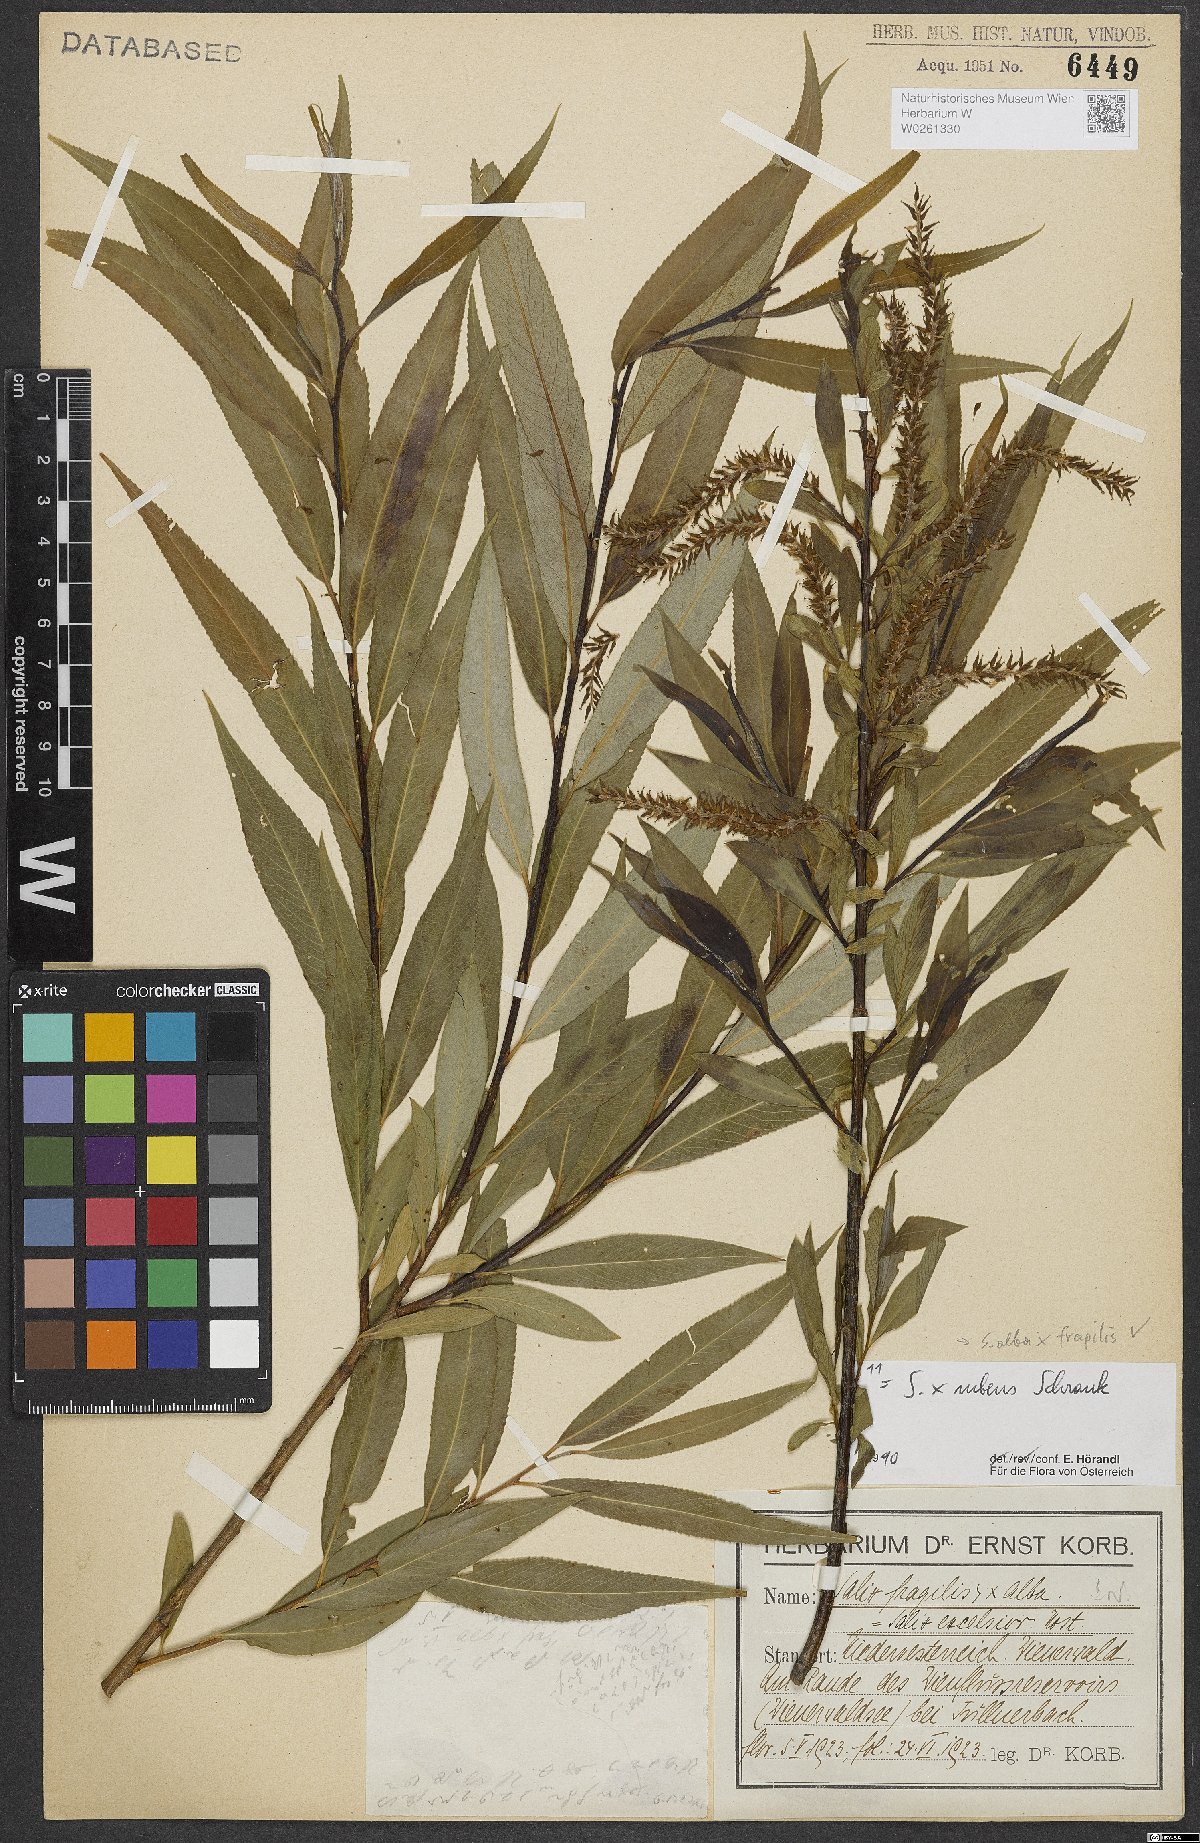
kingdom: Plantae
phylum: Tracheophyta
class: Magnoliopsida
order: Malpighiales
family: Salicaceae
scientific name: Salicaceae
